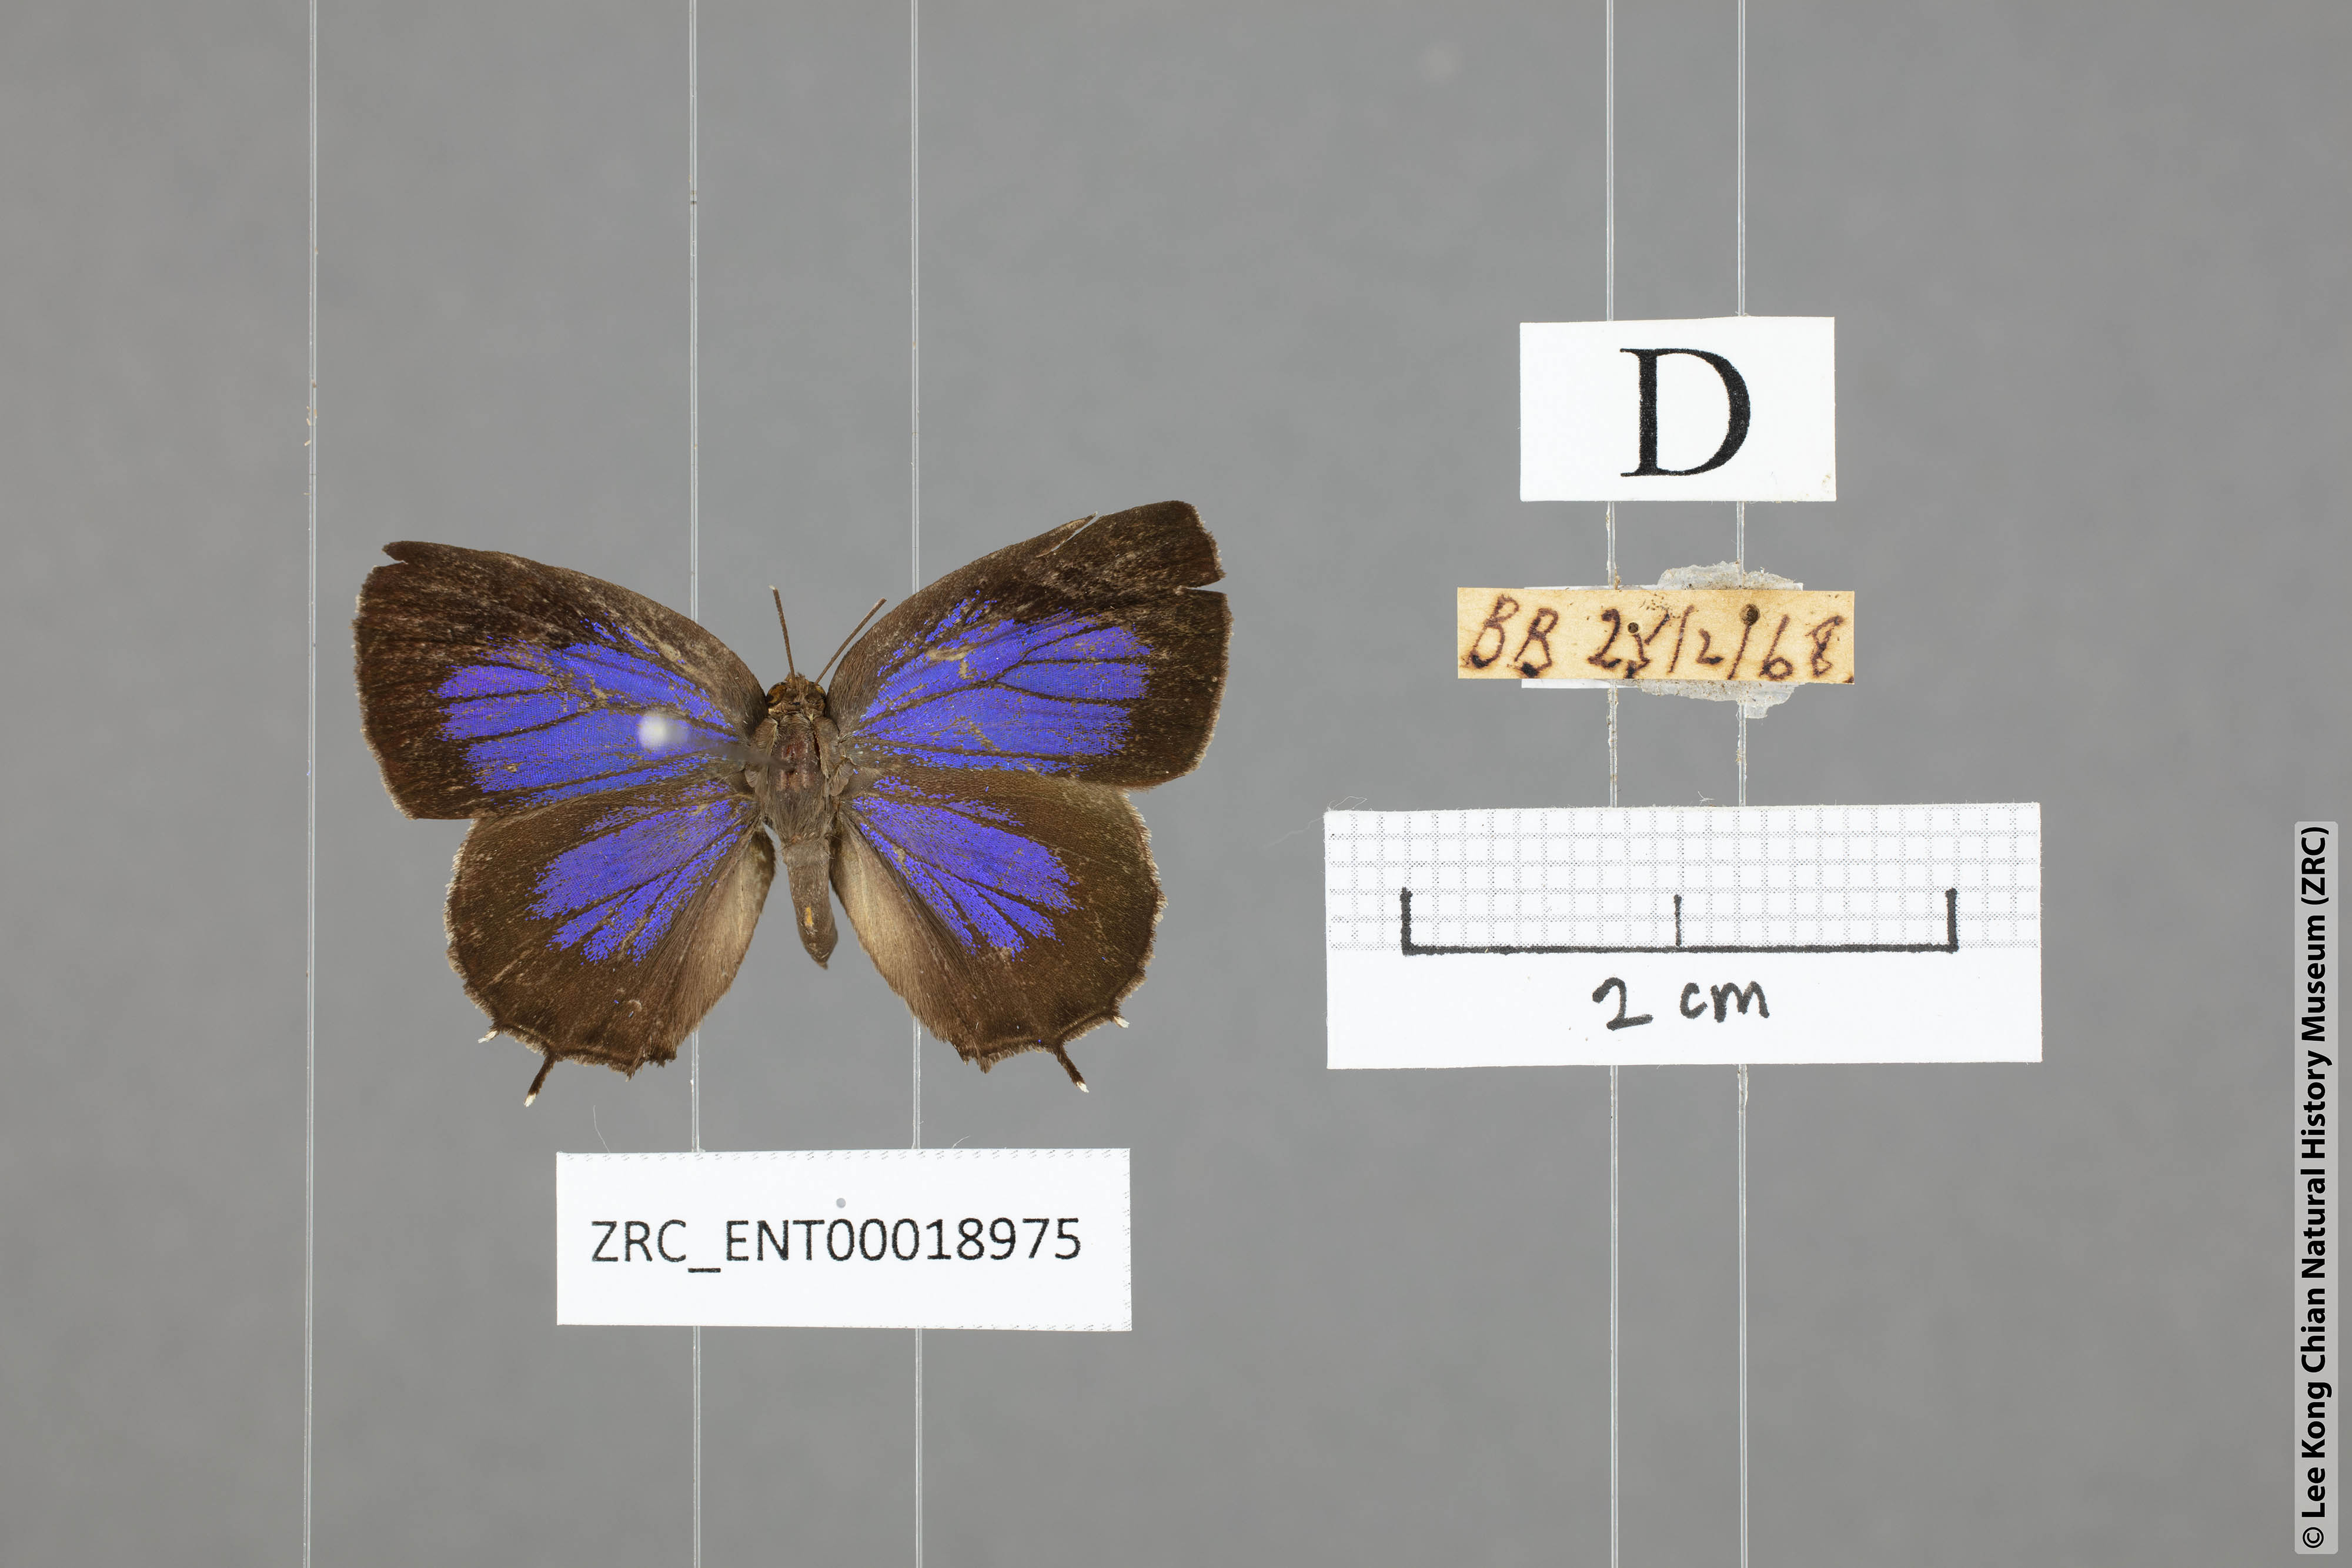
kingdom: Animalia
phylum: Arthropoda
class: Insecta
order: Lepidoptera
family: Lycaenidae
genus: Arhopala
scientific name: Arhopala abseus
